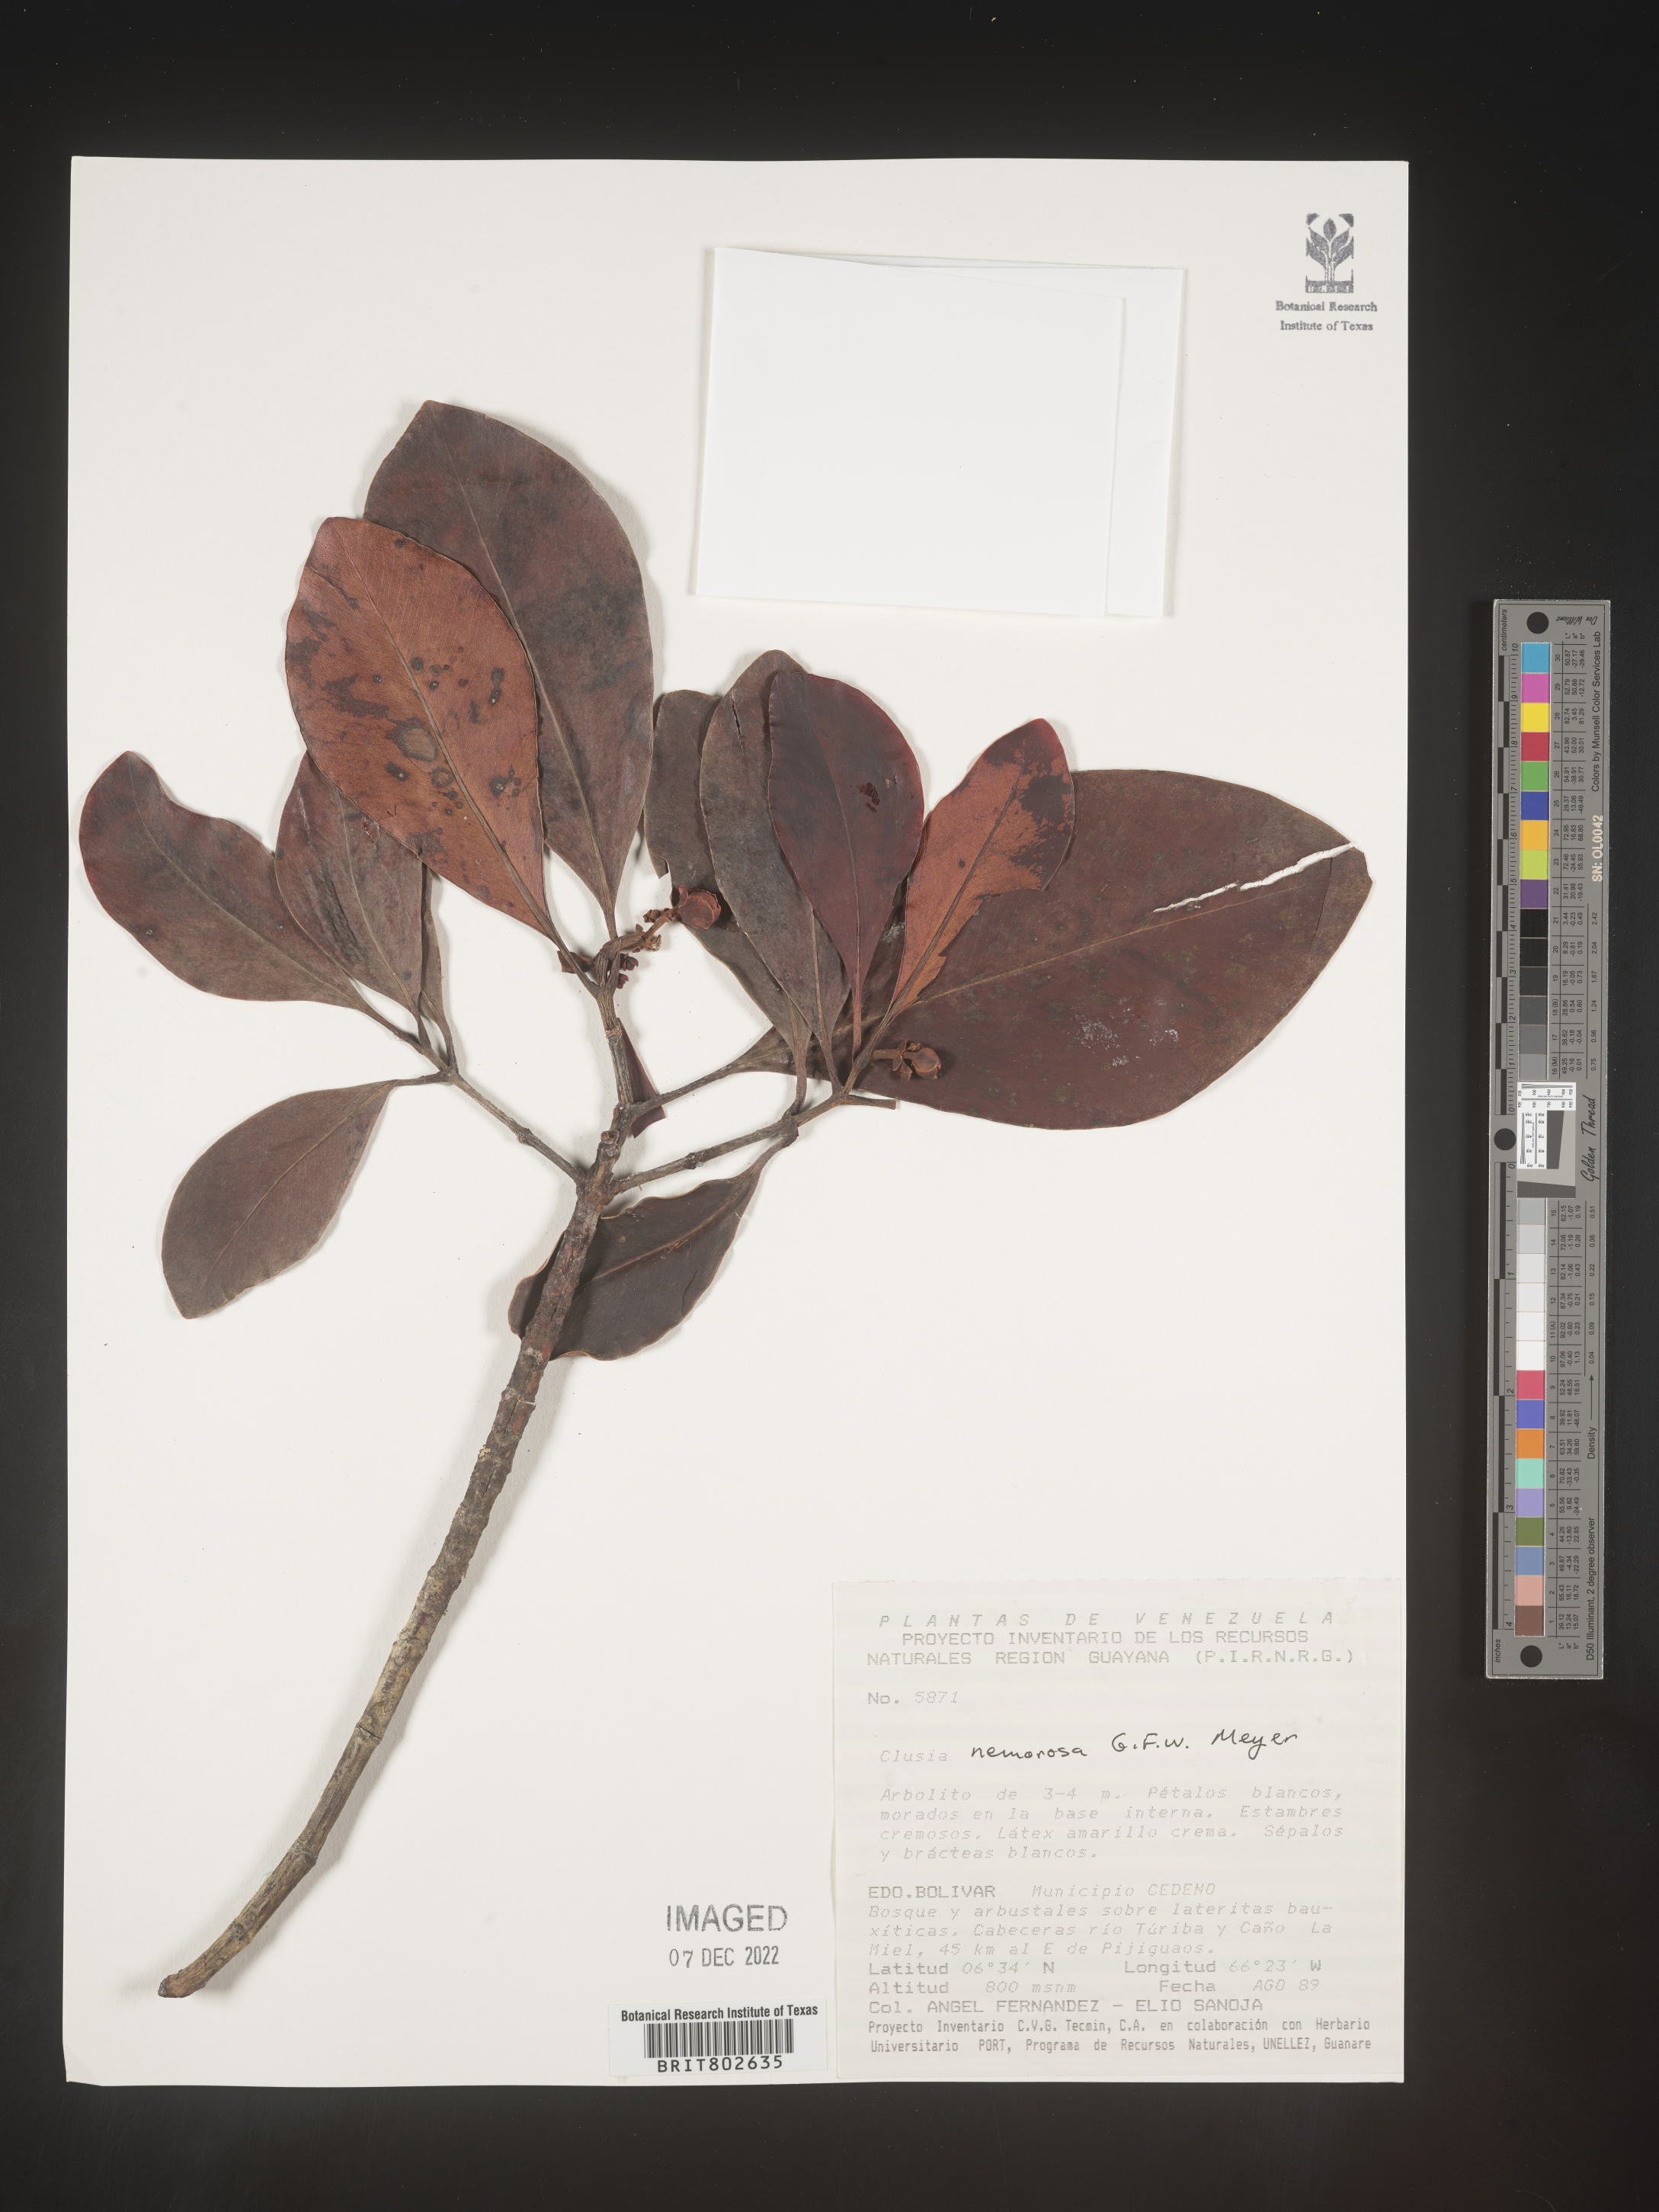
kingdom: Plantae
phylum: Tracheophyta
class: Magnoliopsida
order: Malpighiales
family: Clusiaceae
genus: Clusia
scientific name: Clusia nemorosa
